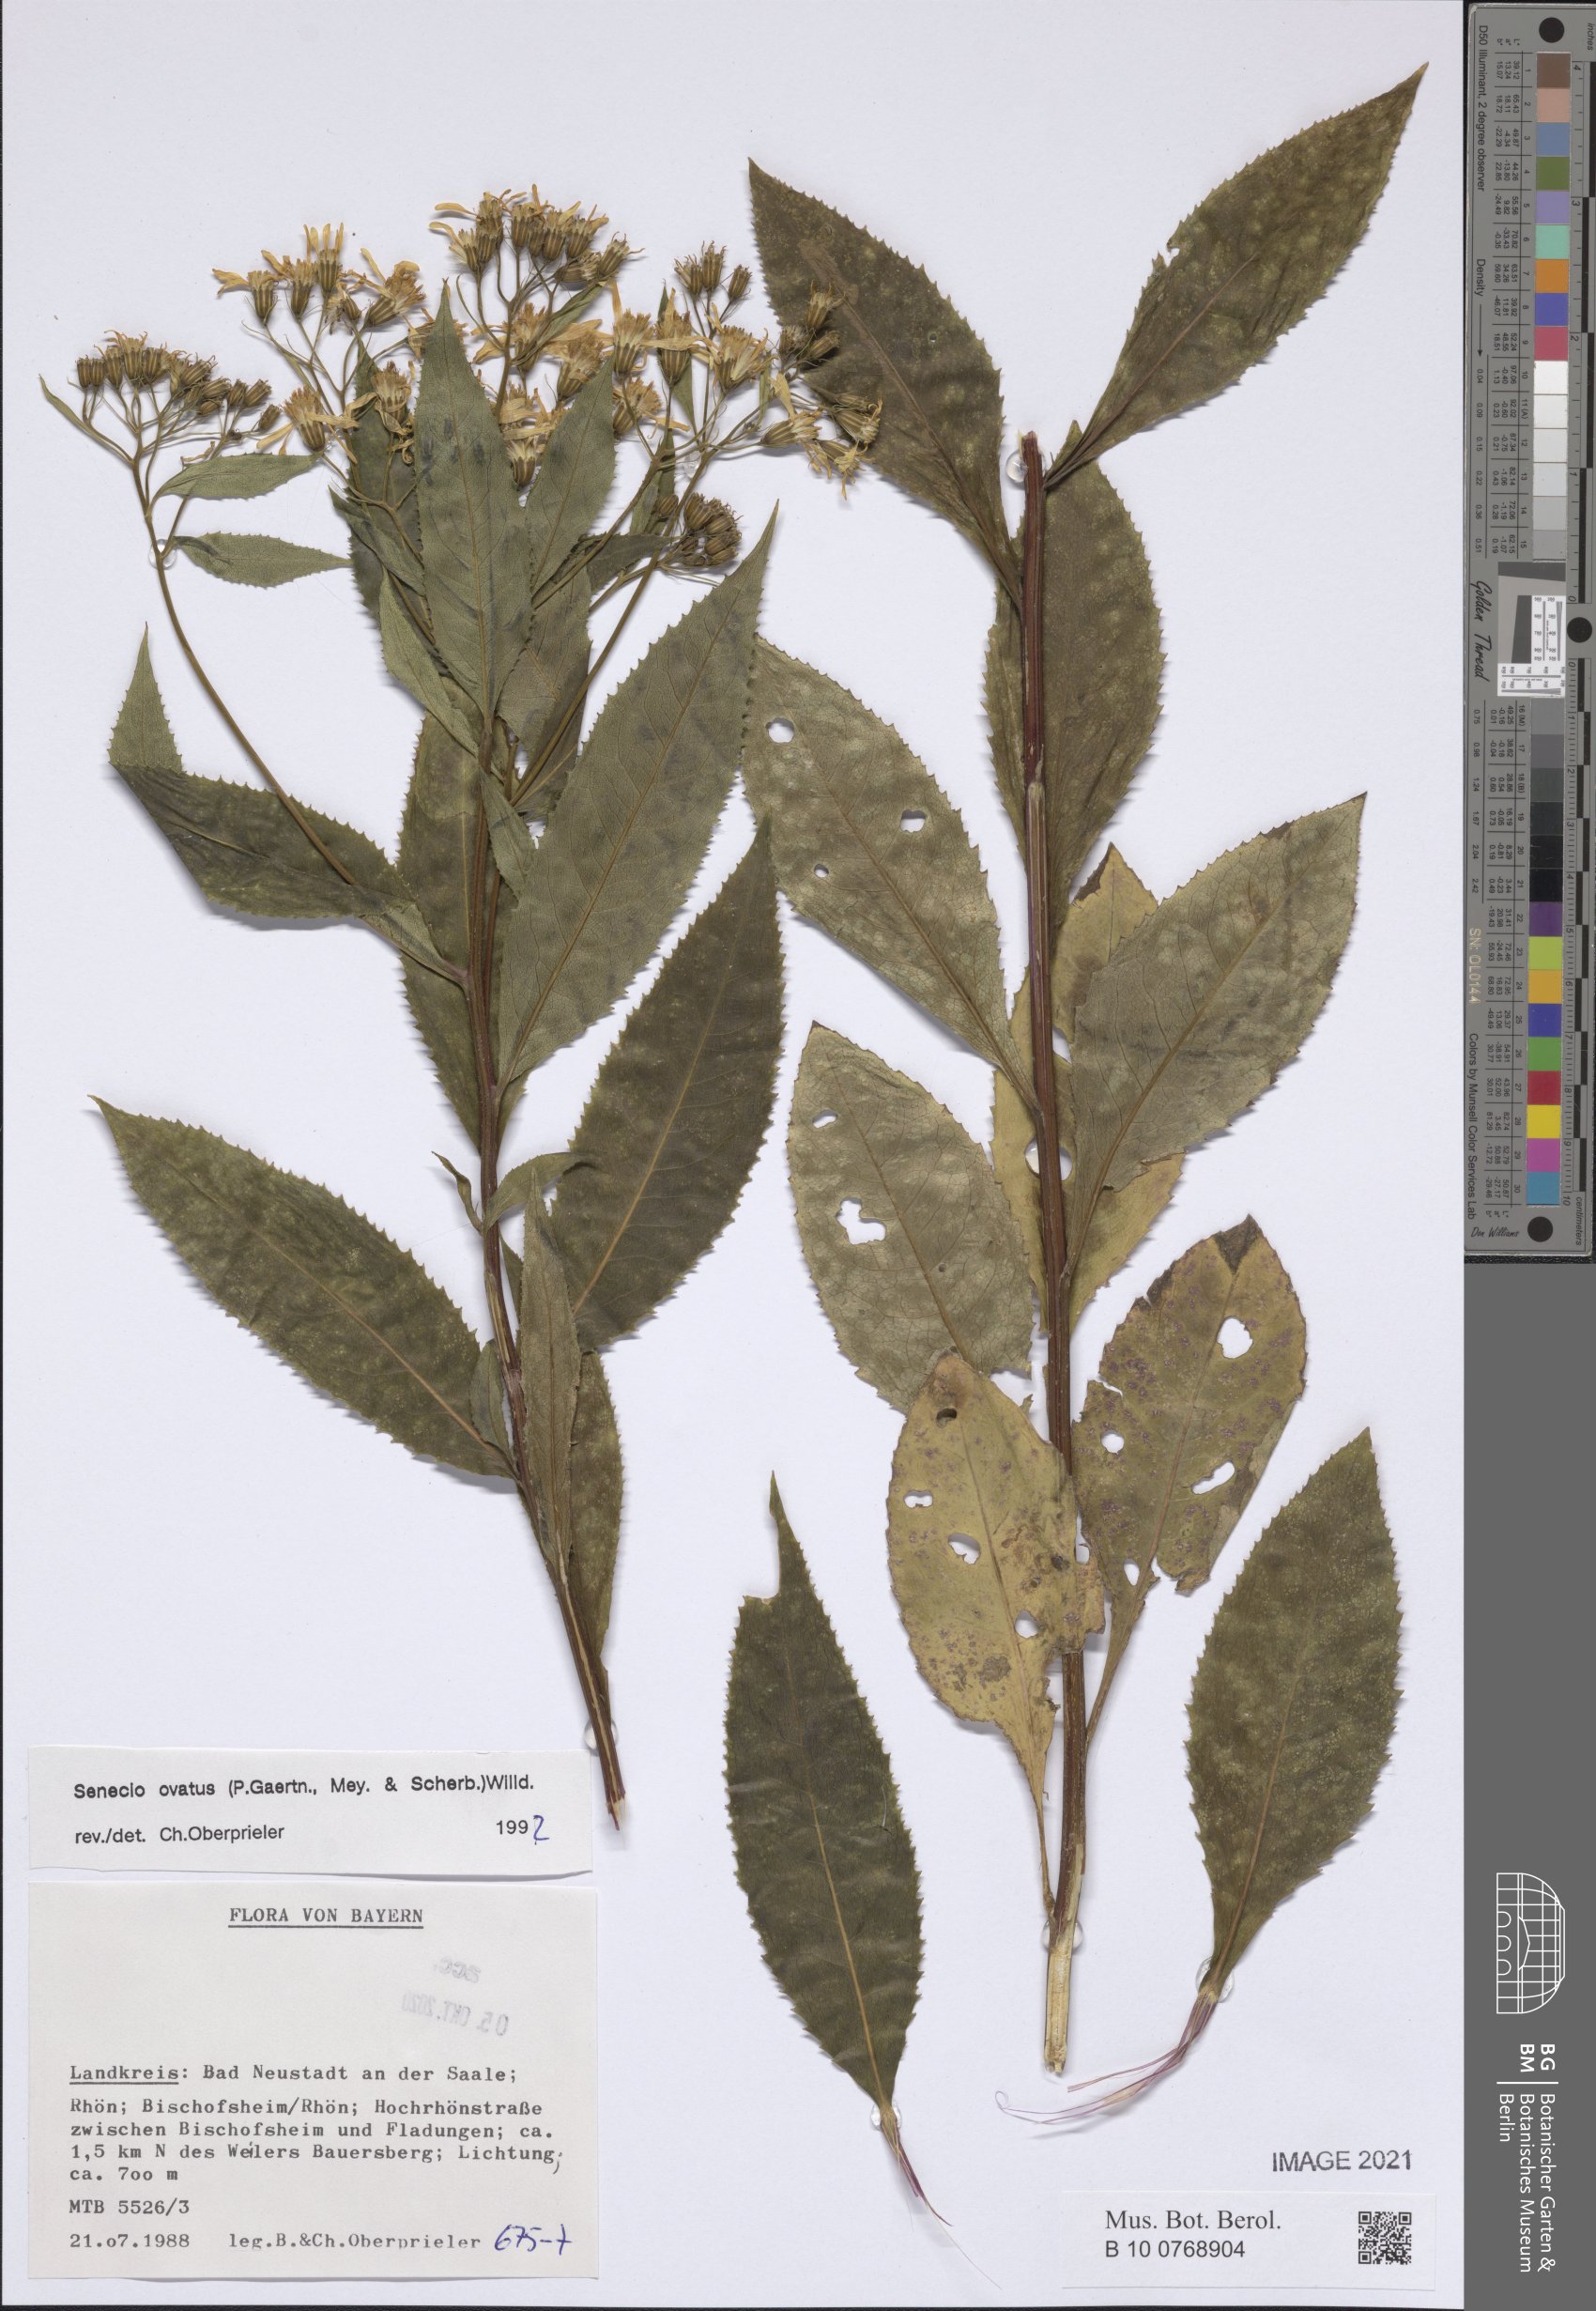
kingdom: Plantae
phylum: Tracheophyta
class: Magnoliopsida
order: Asterales
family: Asteraceae
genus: Senecio
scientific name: Senecio ovatus
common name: Wood ragwort
